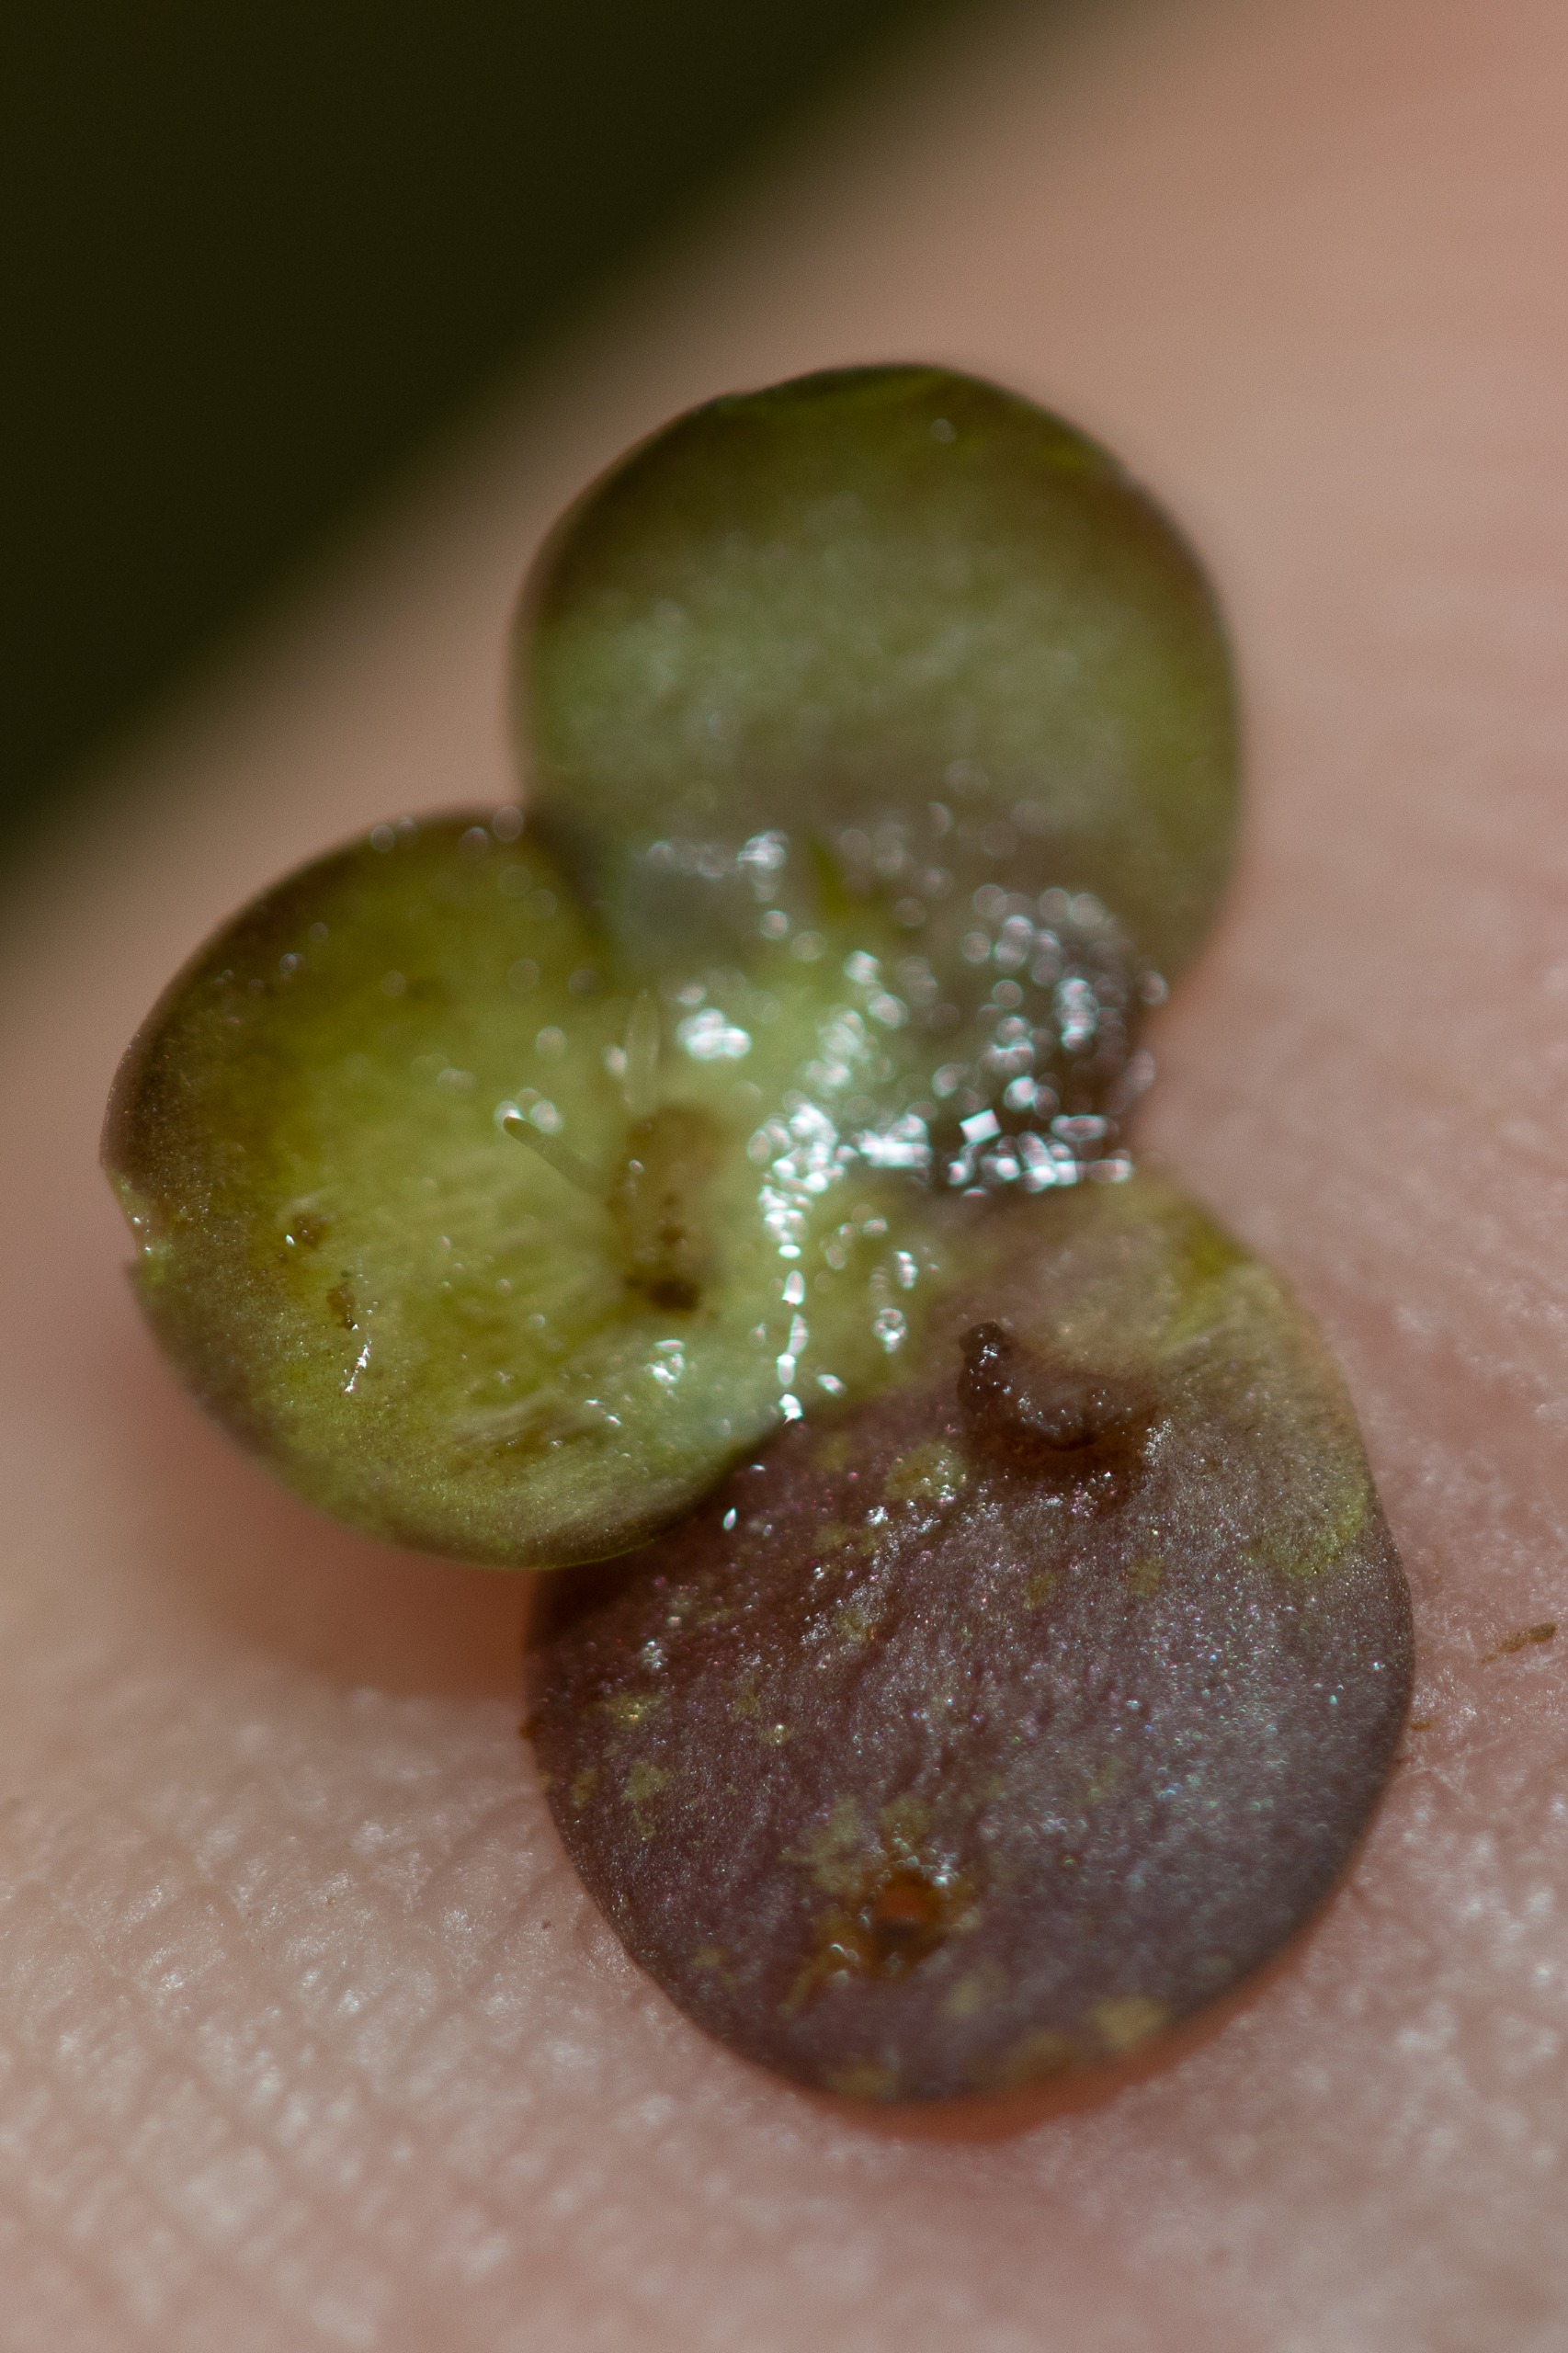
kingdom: Plantae
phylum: Tracheophyta
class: Liliopsida
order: Alismatales
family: Araceae
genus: Lemna
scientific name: Lemna minor
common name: Liden andemad
